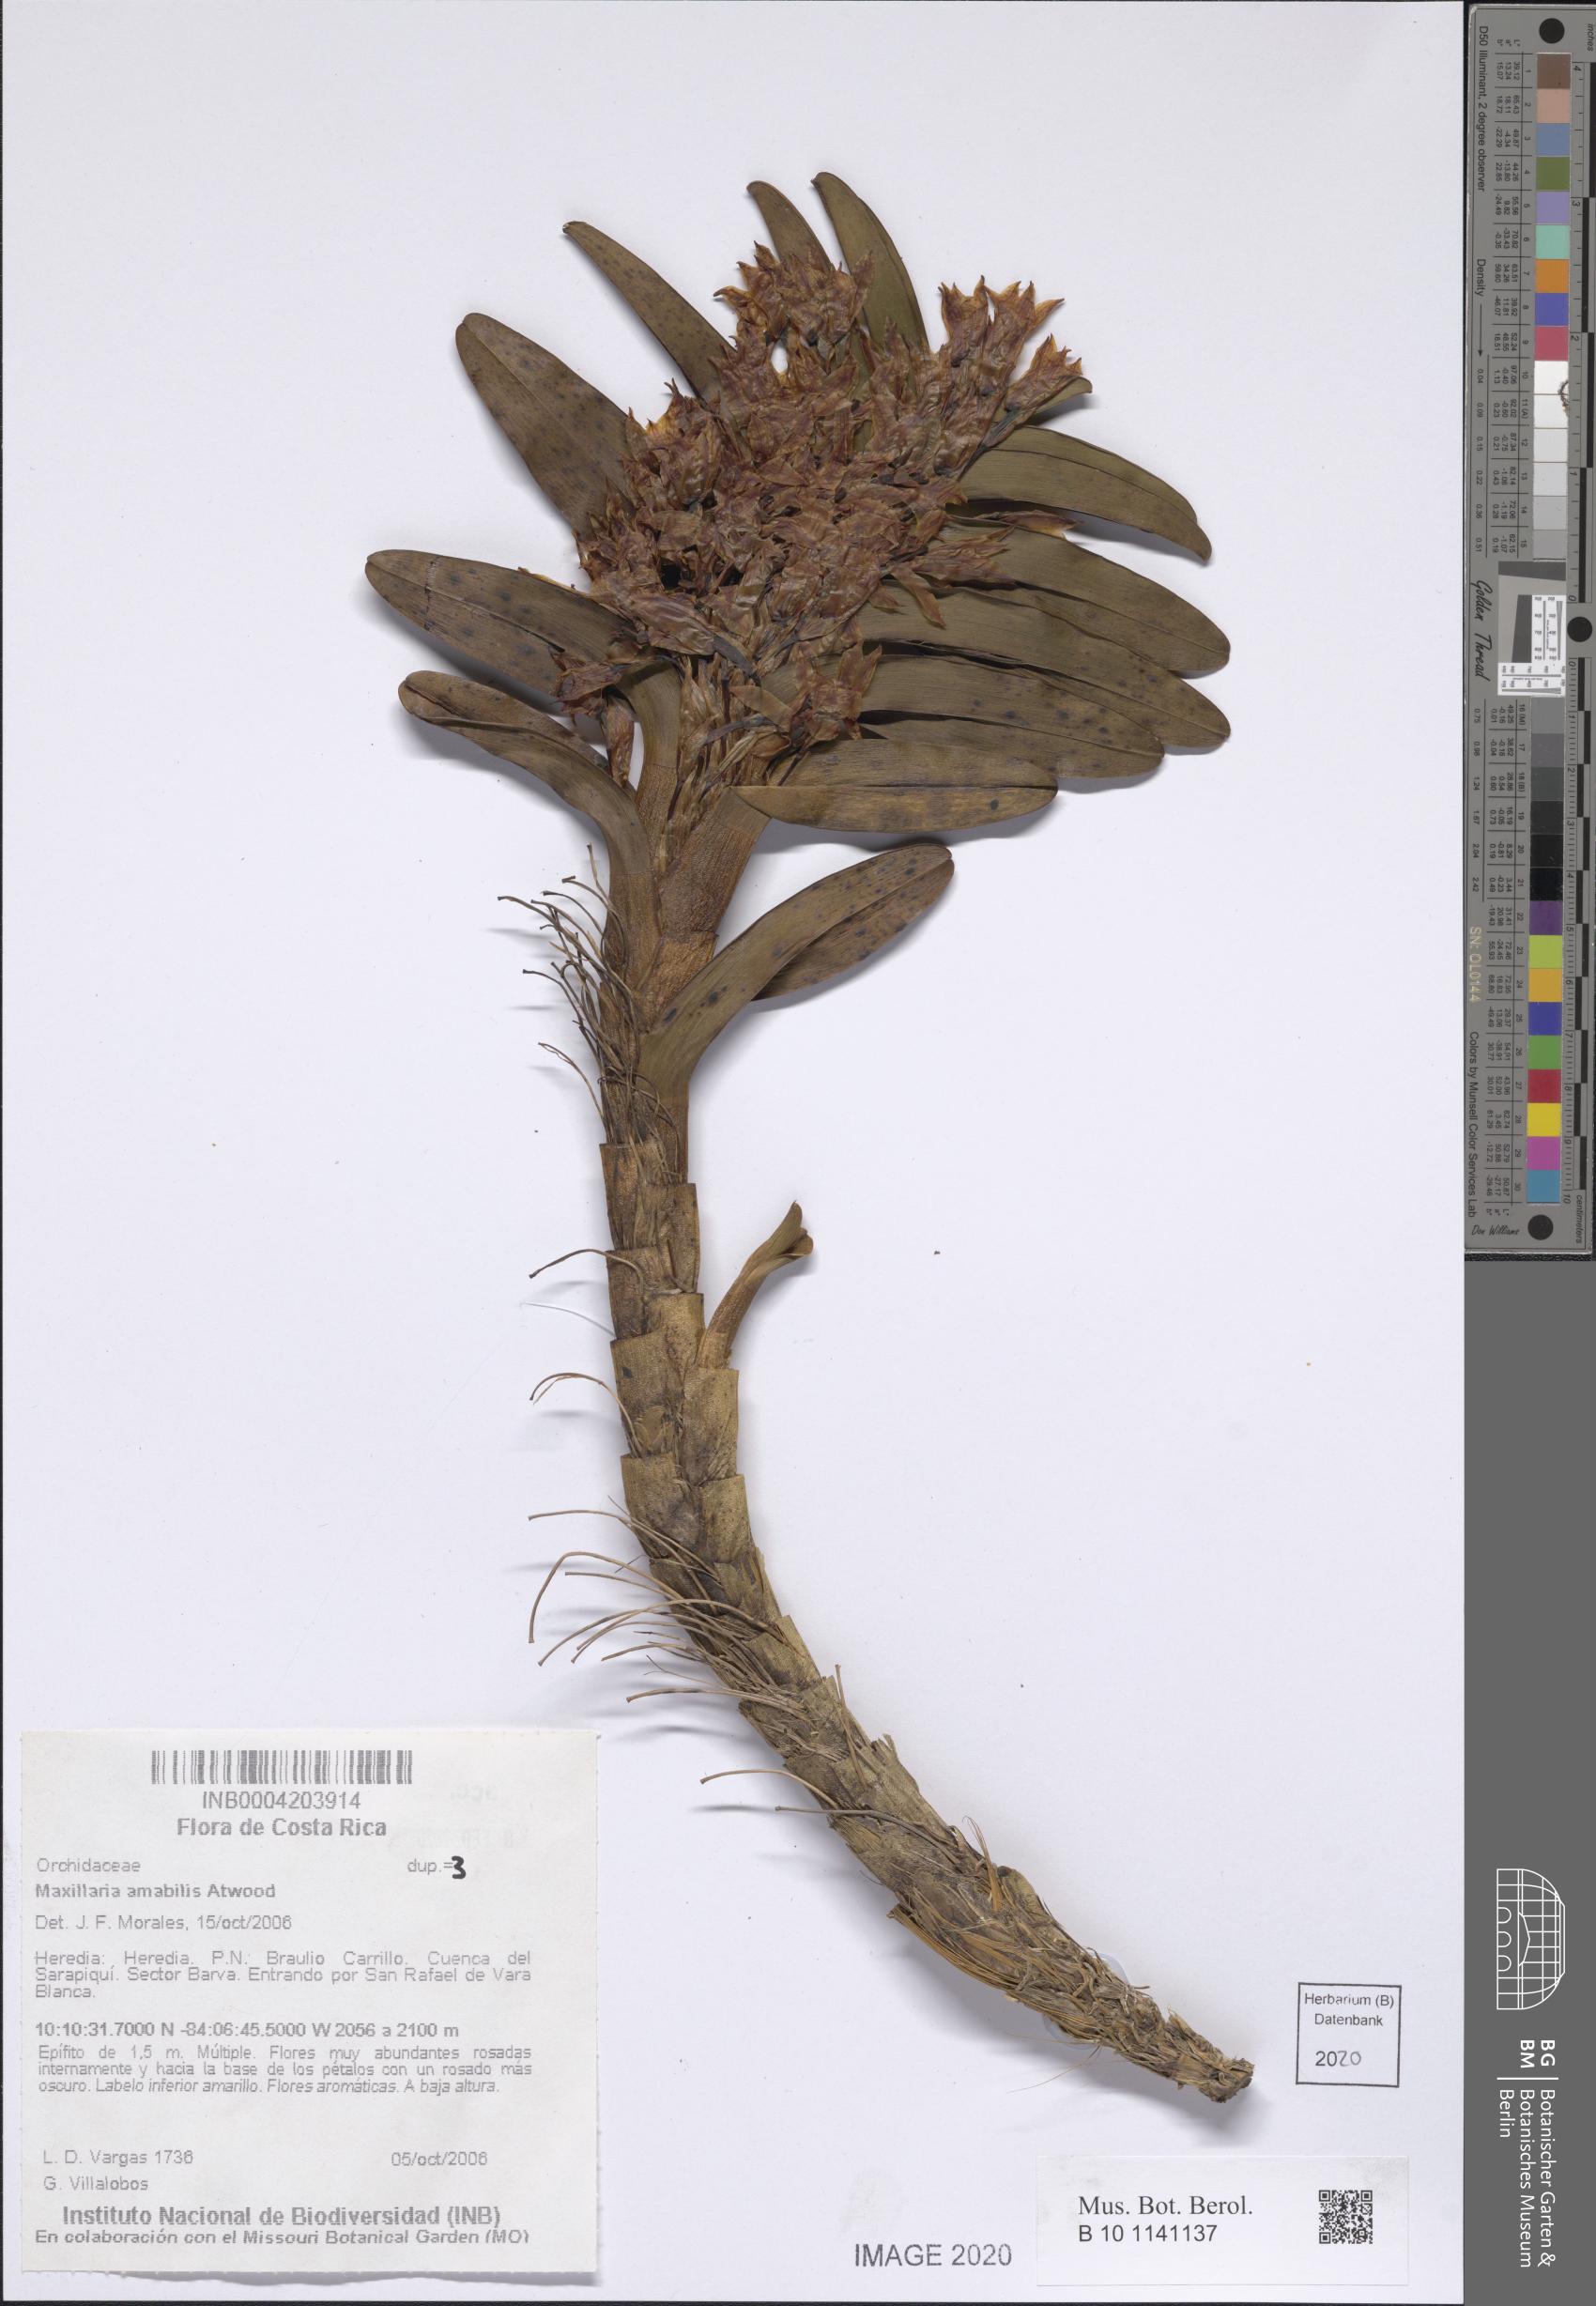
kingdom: Plantae
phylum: Tracheophyta
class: Liliopsida
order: Asparagales
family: Orchidaceae
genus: Maxillaria
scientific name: Maxillaria amabilis
